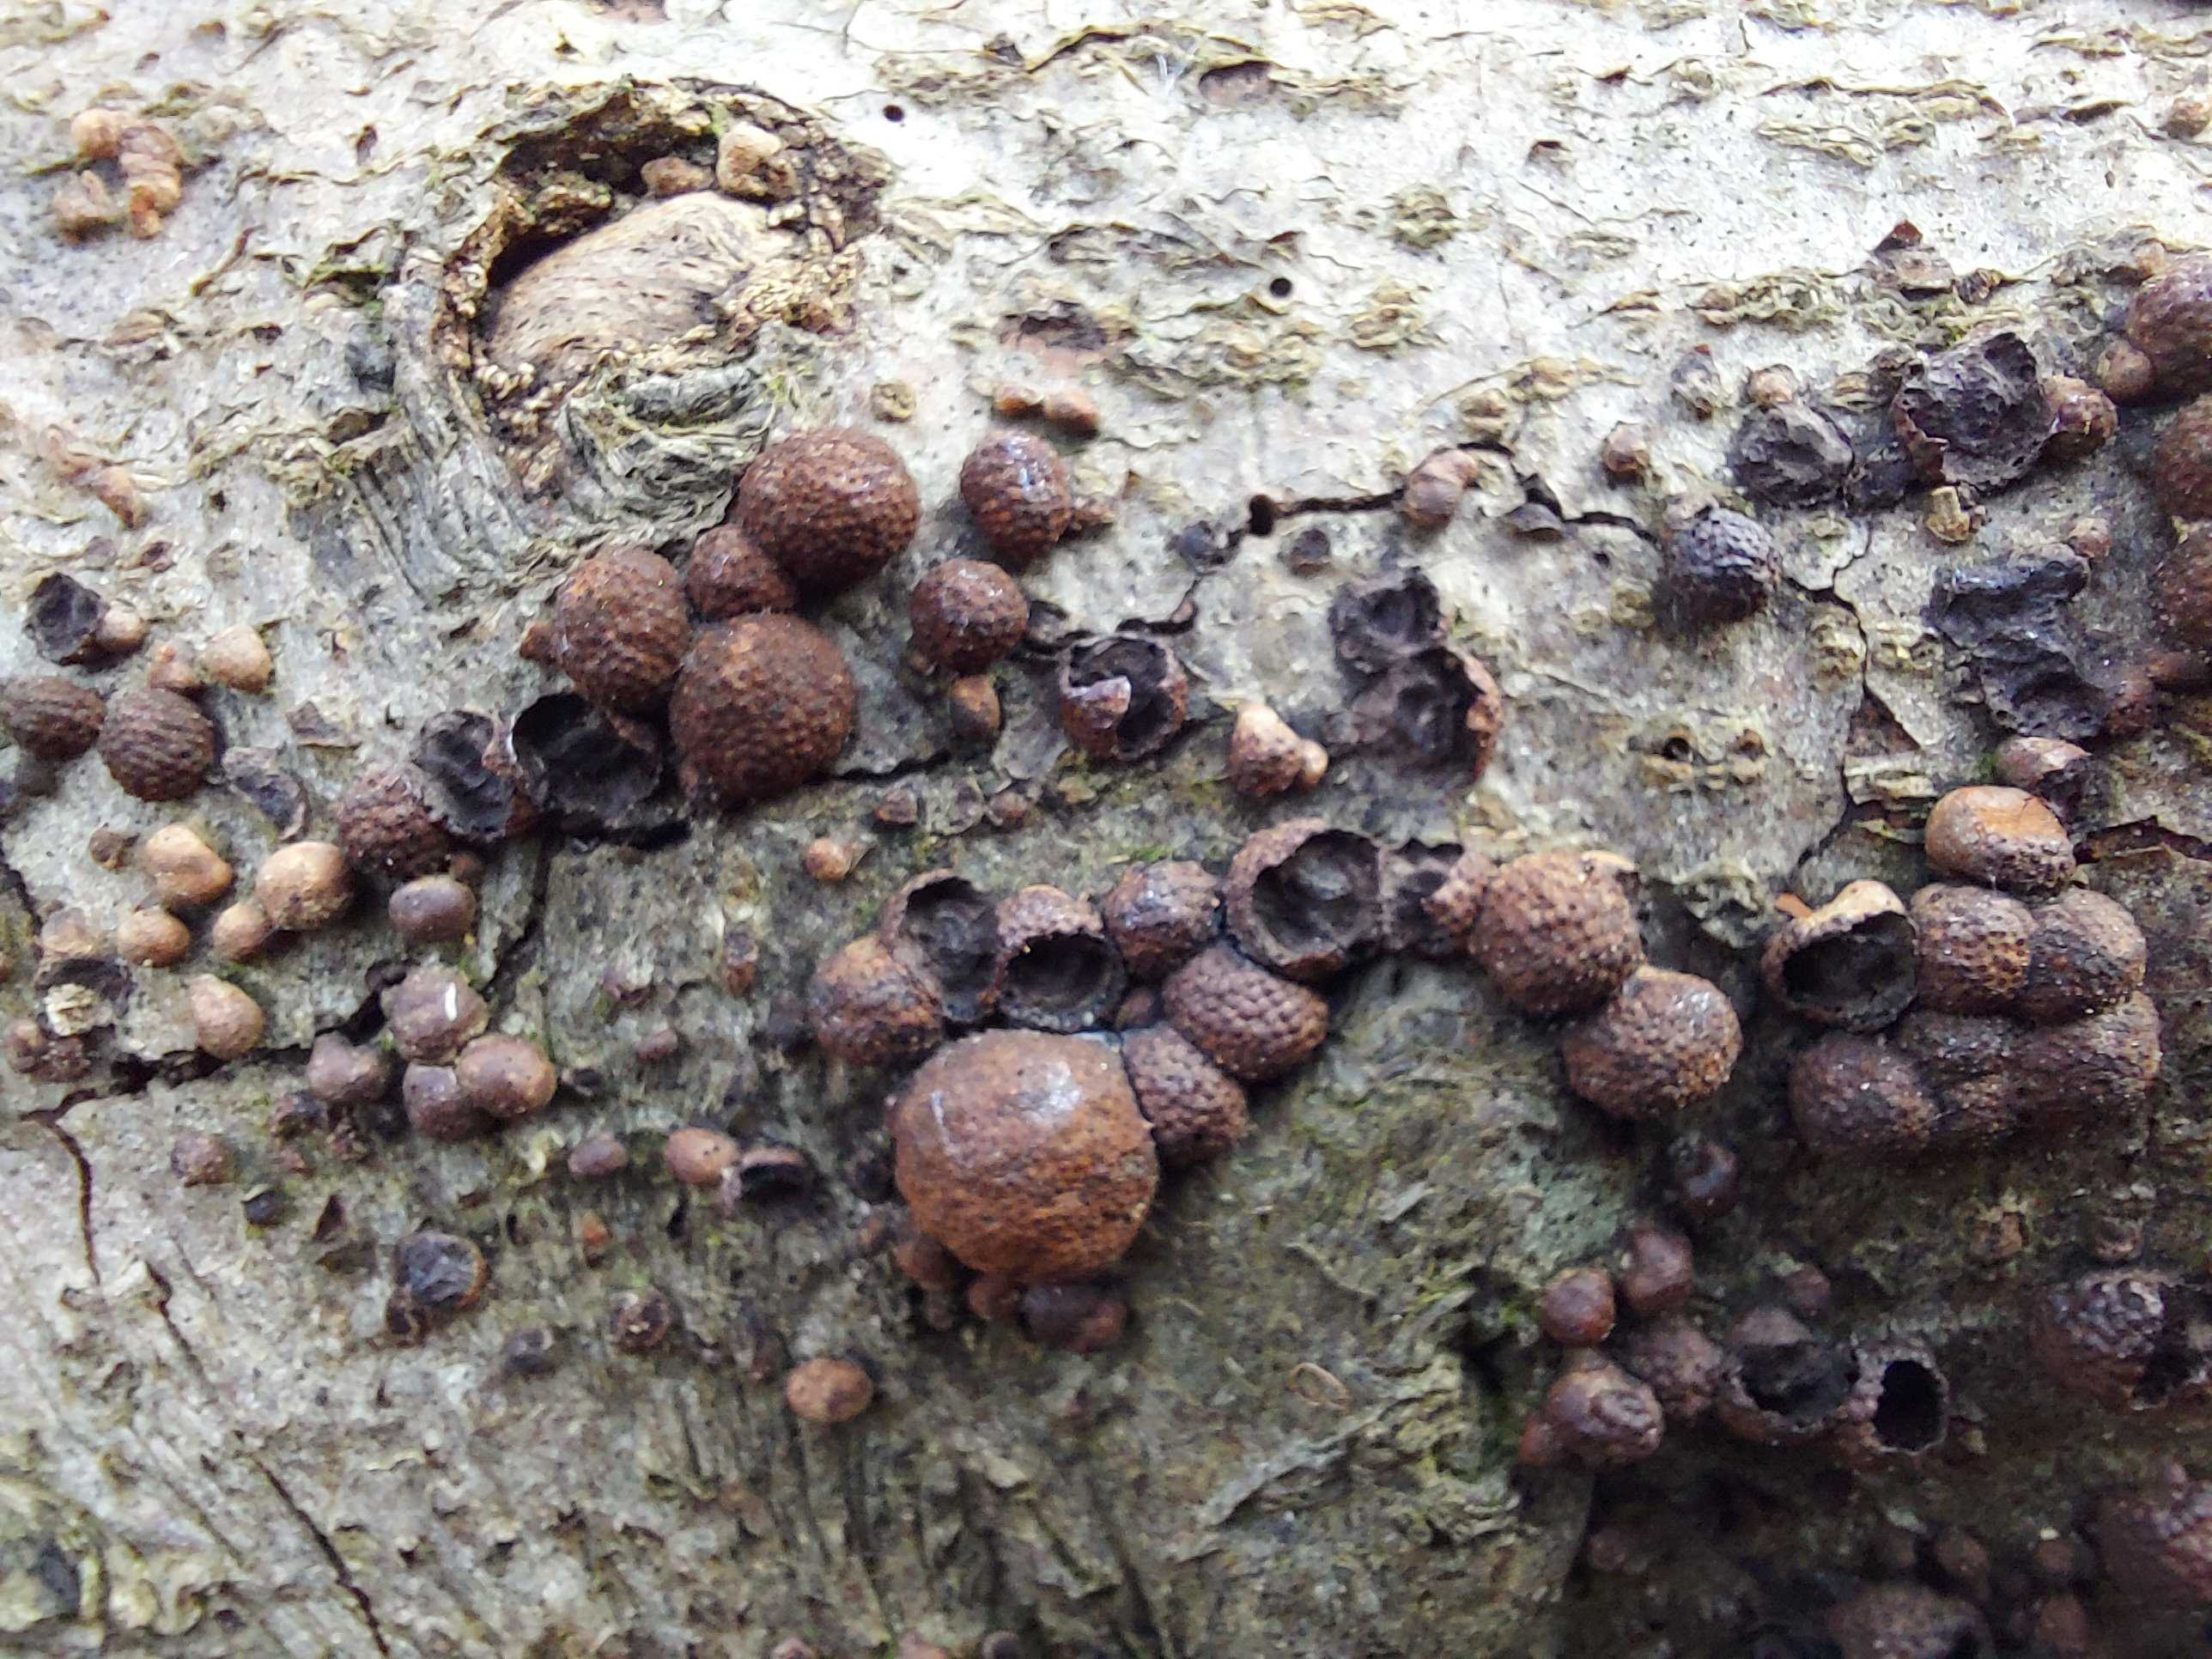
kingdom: Fungi
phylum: Ascomycota
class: Sordariomycetes
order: Xylariales
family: Hypoxylaceae
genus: Hypoxylon
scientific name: Hypoxylon fragiforme
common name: kuljordbær
